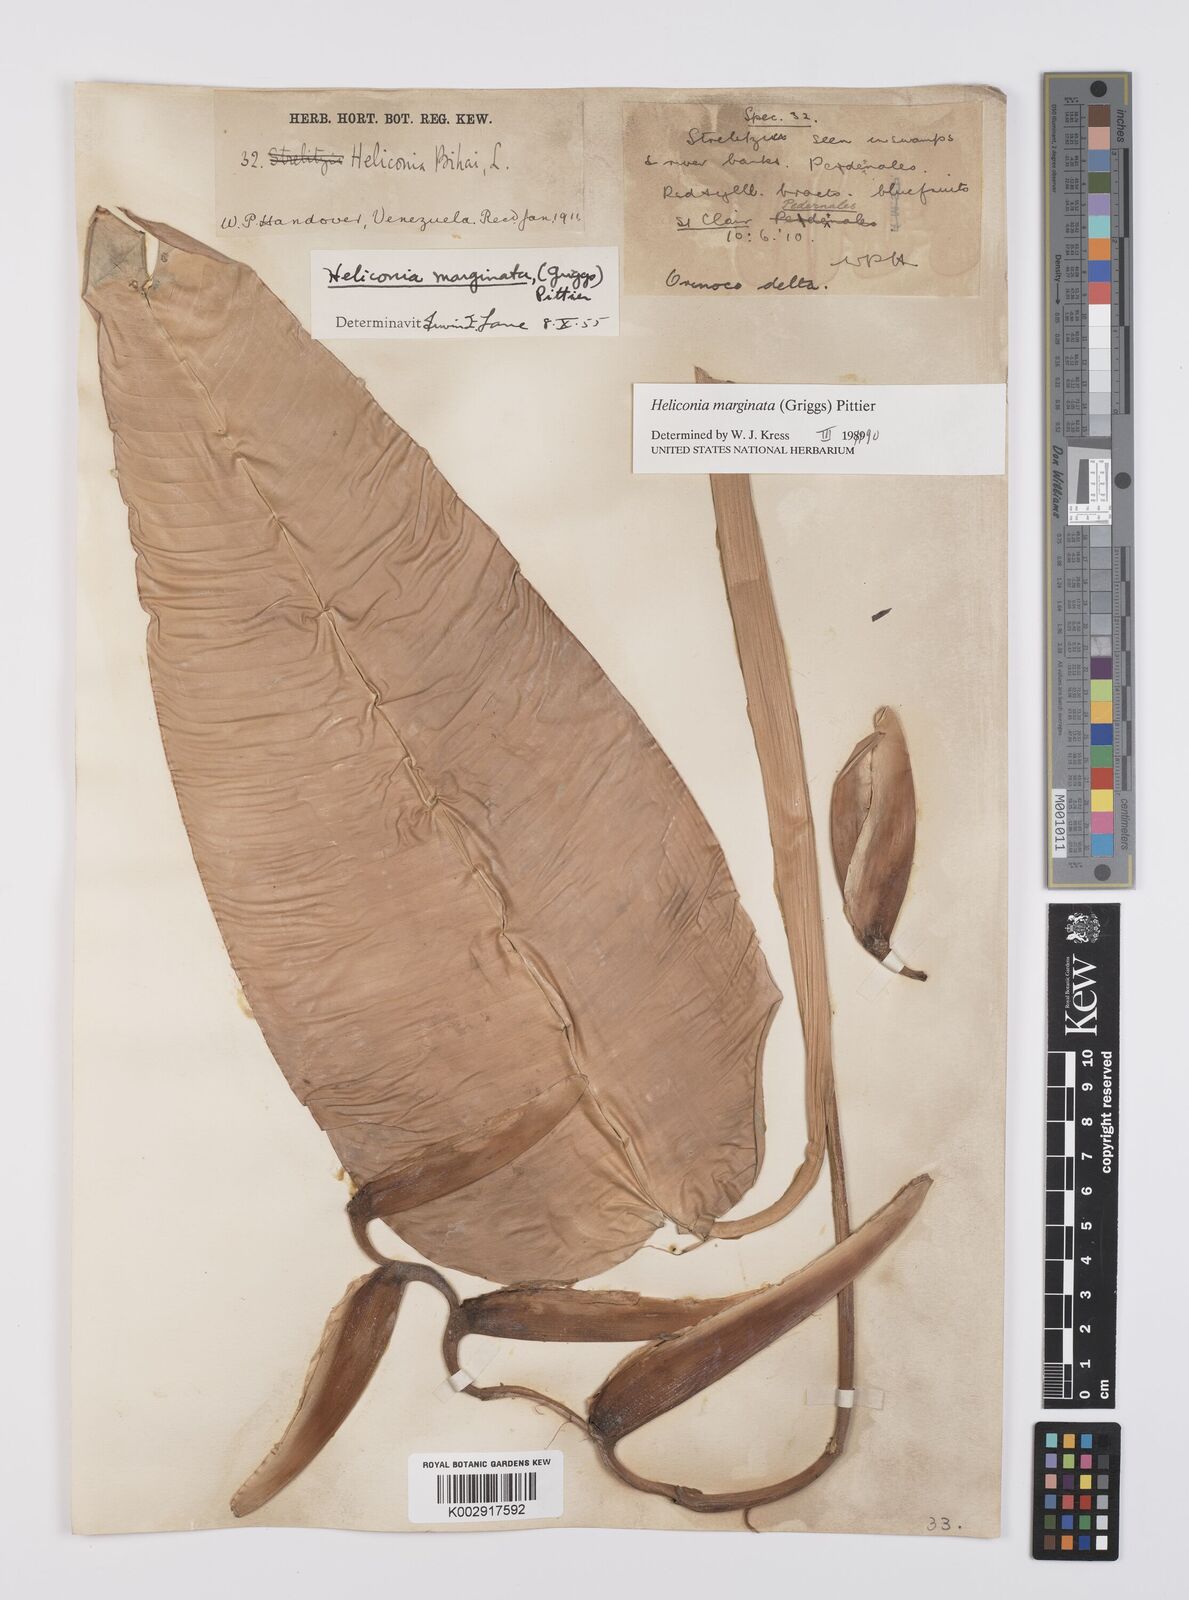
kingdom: Plantae
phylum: Tracheophyta
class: Liliopsida
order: Zingiberales
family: Heliconiaceae
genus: Heliconia
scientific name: Heliconia marginata
